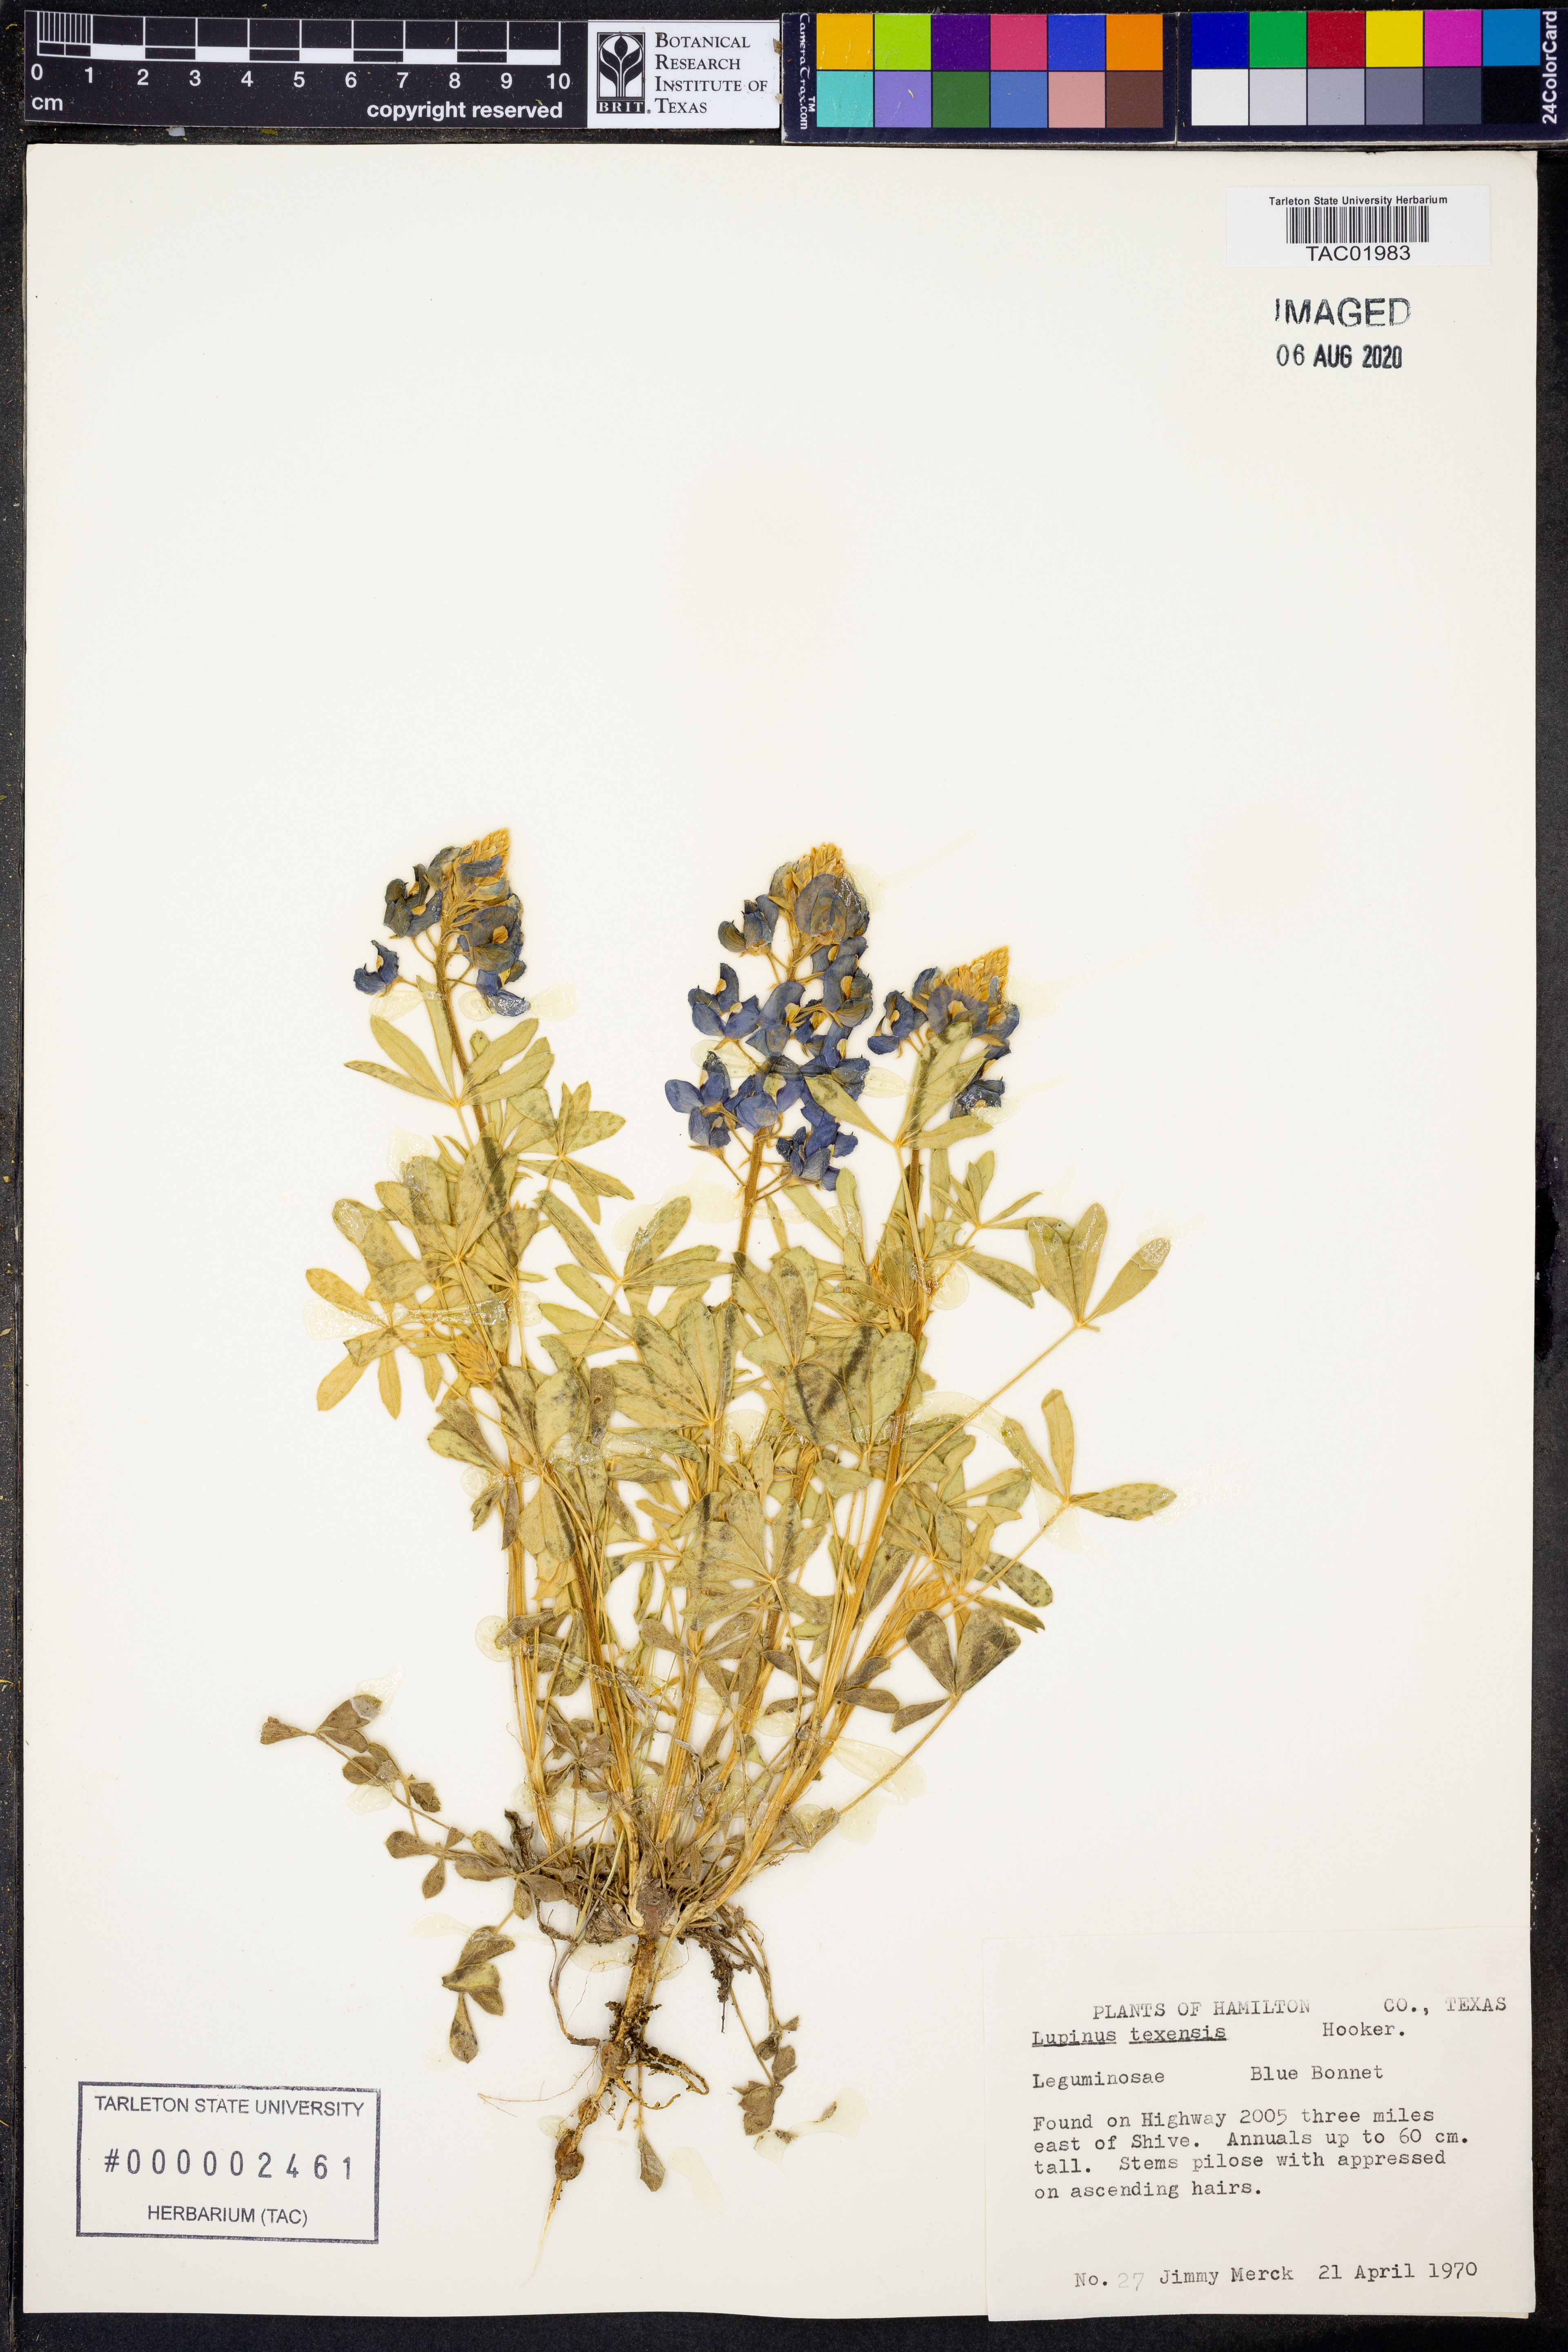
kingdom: Plantae
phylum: Tracheophyta
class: Magnoliopsida
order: Fabales
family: Fabaceae
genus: Lupinus
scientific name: Lupinus texensis
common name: Texas bluebonnet
